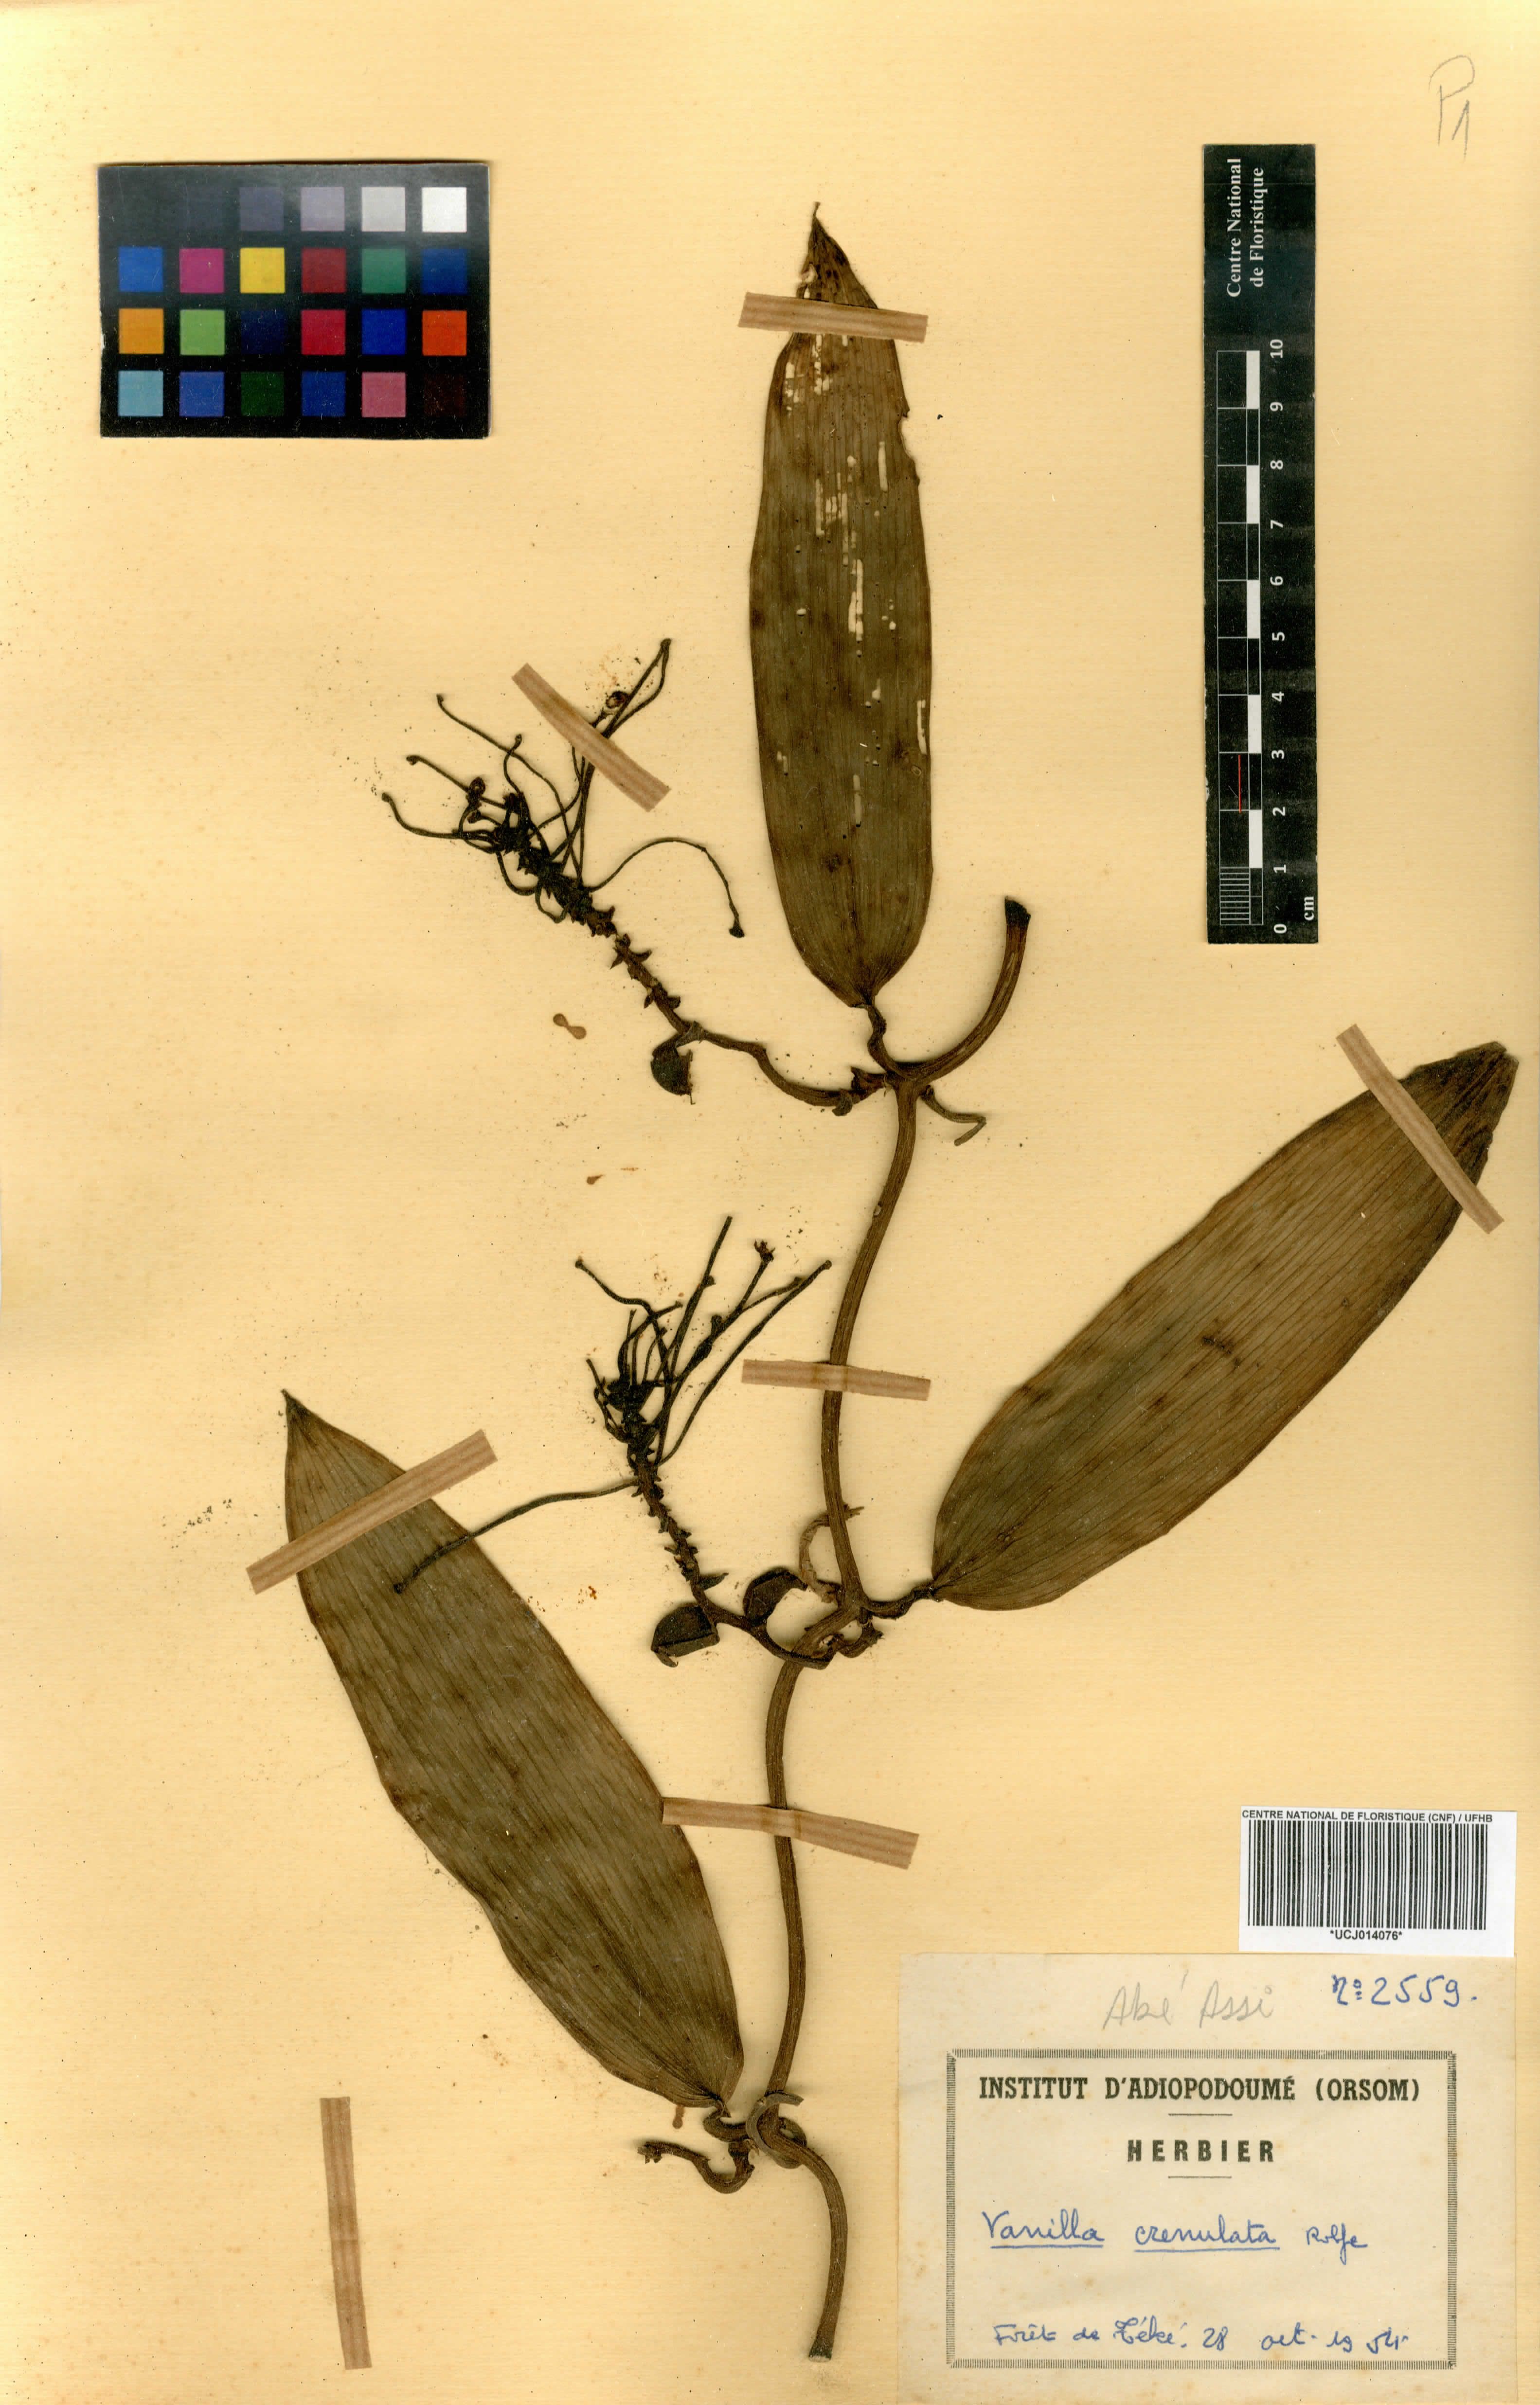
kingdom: Plantae
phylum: Tracheophyta
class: Liliopsida
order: Asparagales
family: Orchidaceae
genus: Vanilla
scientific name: Vanilla crenulata
